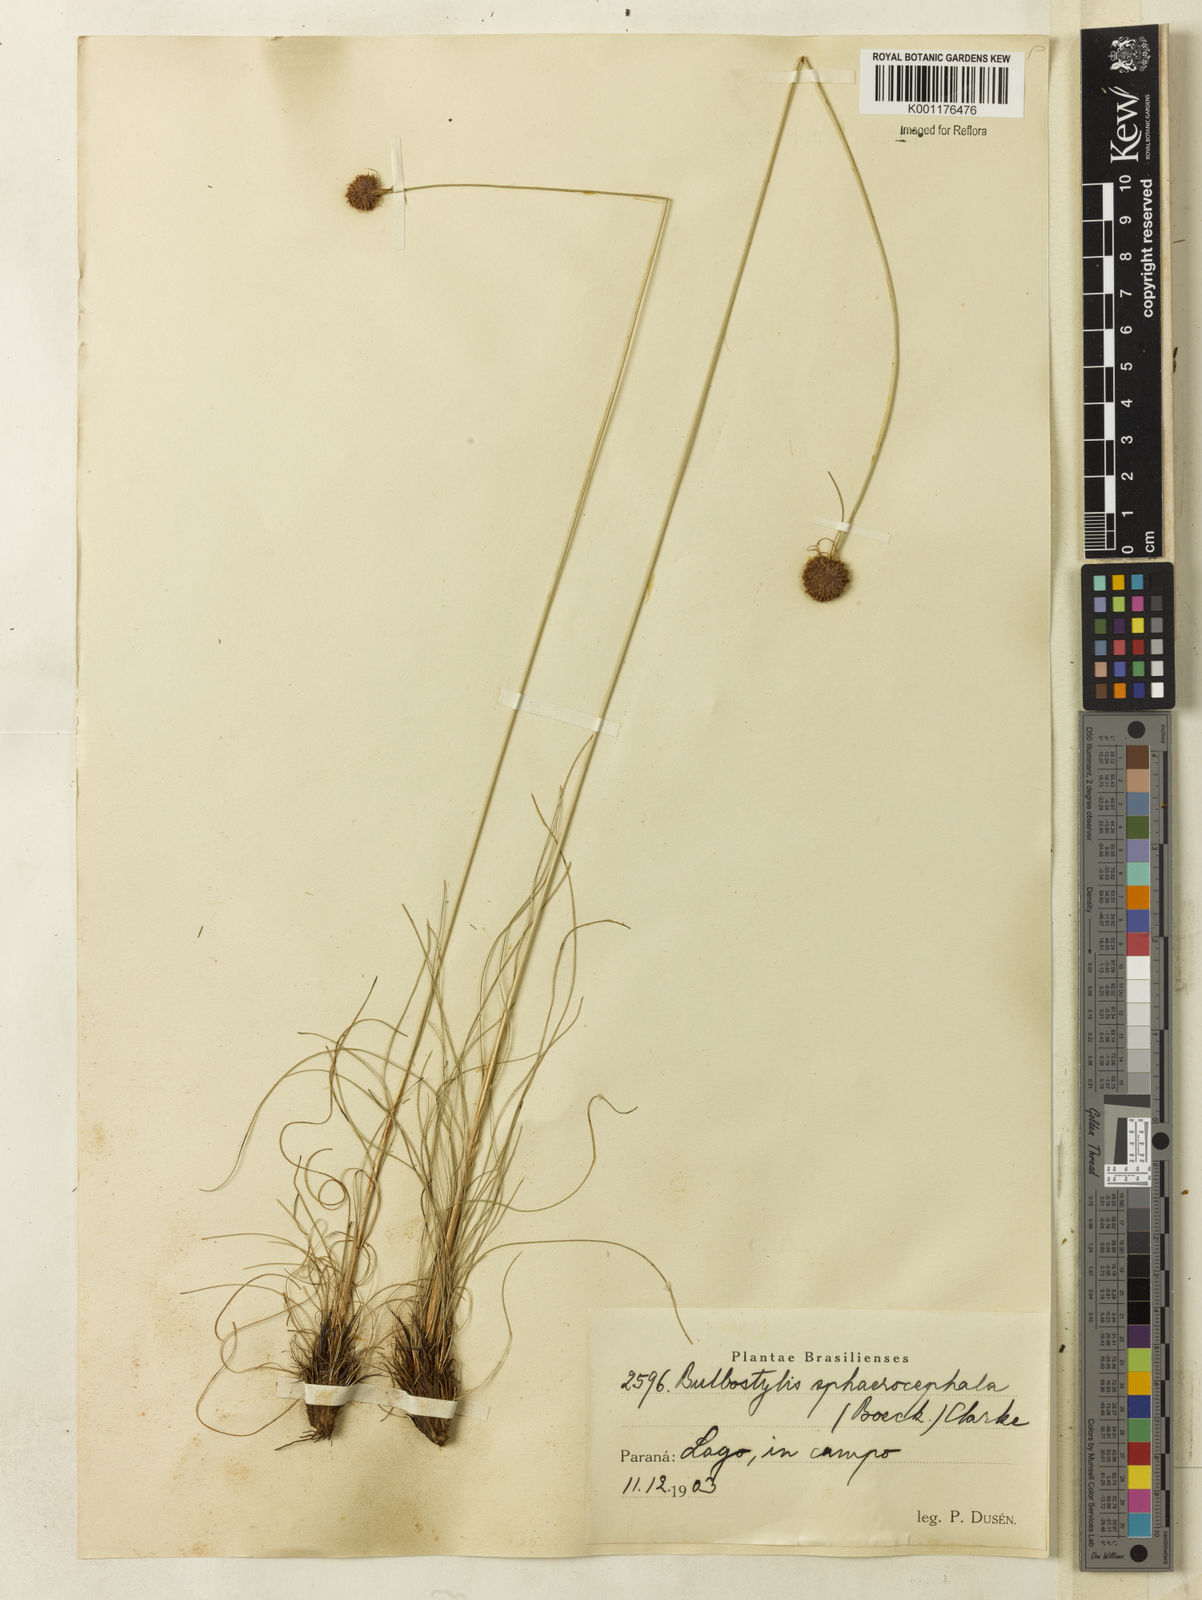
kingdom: Plantae
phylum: Tracheophyta
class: Liliopsida
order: Poales
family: Cyperaceae
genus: Bulbostylis
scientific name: Bulbostylis
